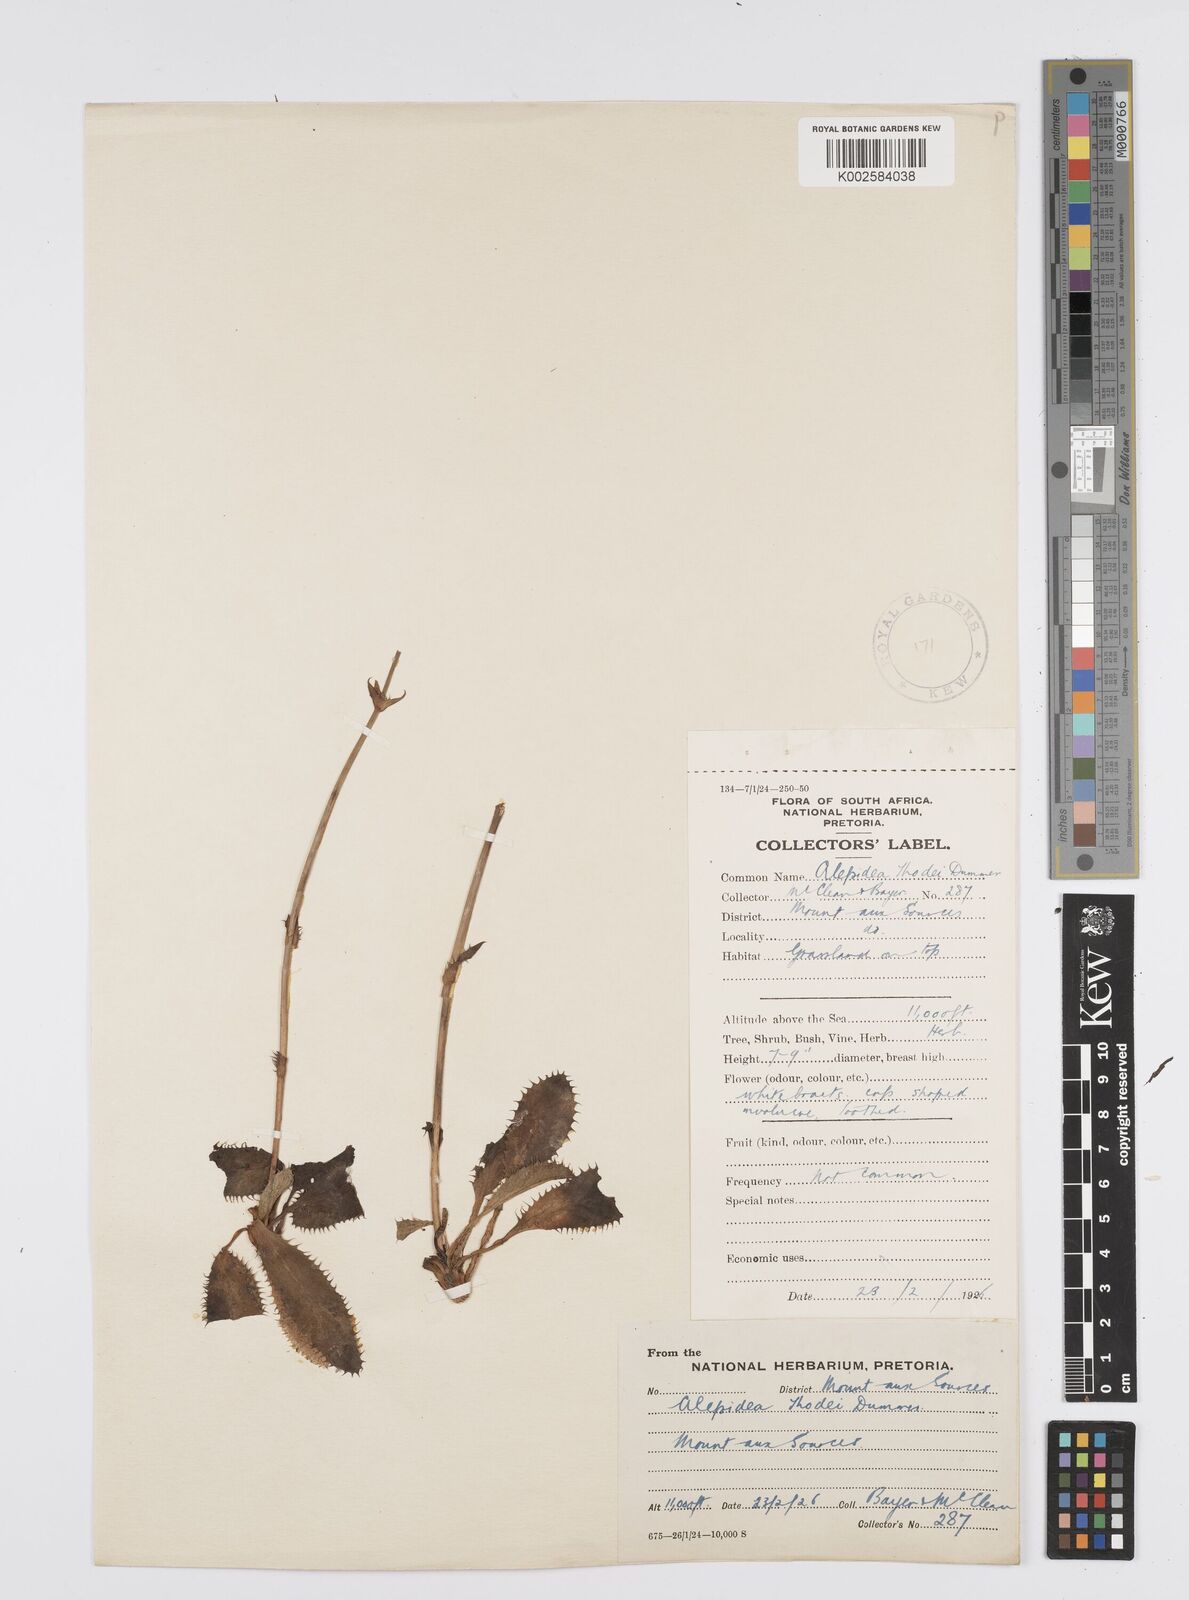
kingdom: Plantae
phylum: Tracheophyta
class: Magnoliopsida
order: Apiales
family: Apiaceae
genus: Alepidea
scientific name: Alepidea thodei
